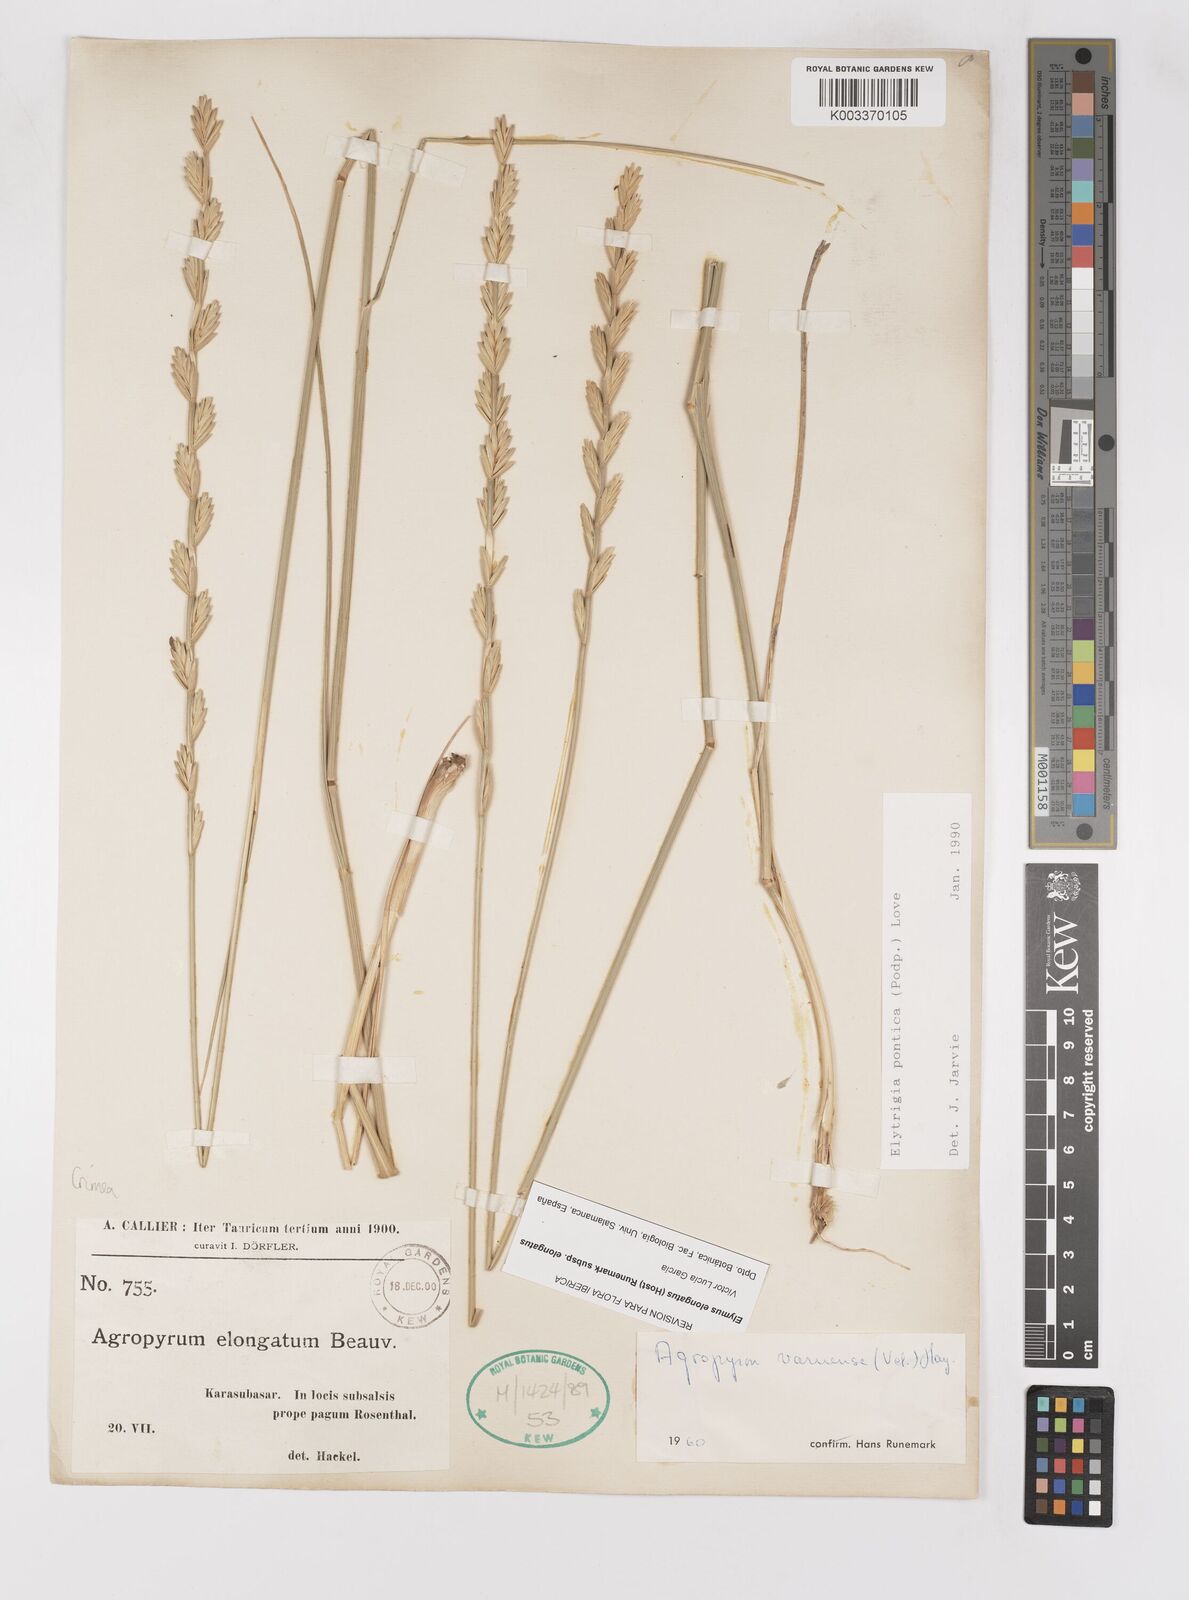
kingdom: Plantae
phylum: Tracheophyta
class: Liliopsida
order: Poales
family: Poaceae
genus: Thinopyrum
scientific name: Thinopyrum elongatum
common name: Tall wheatgrass
